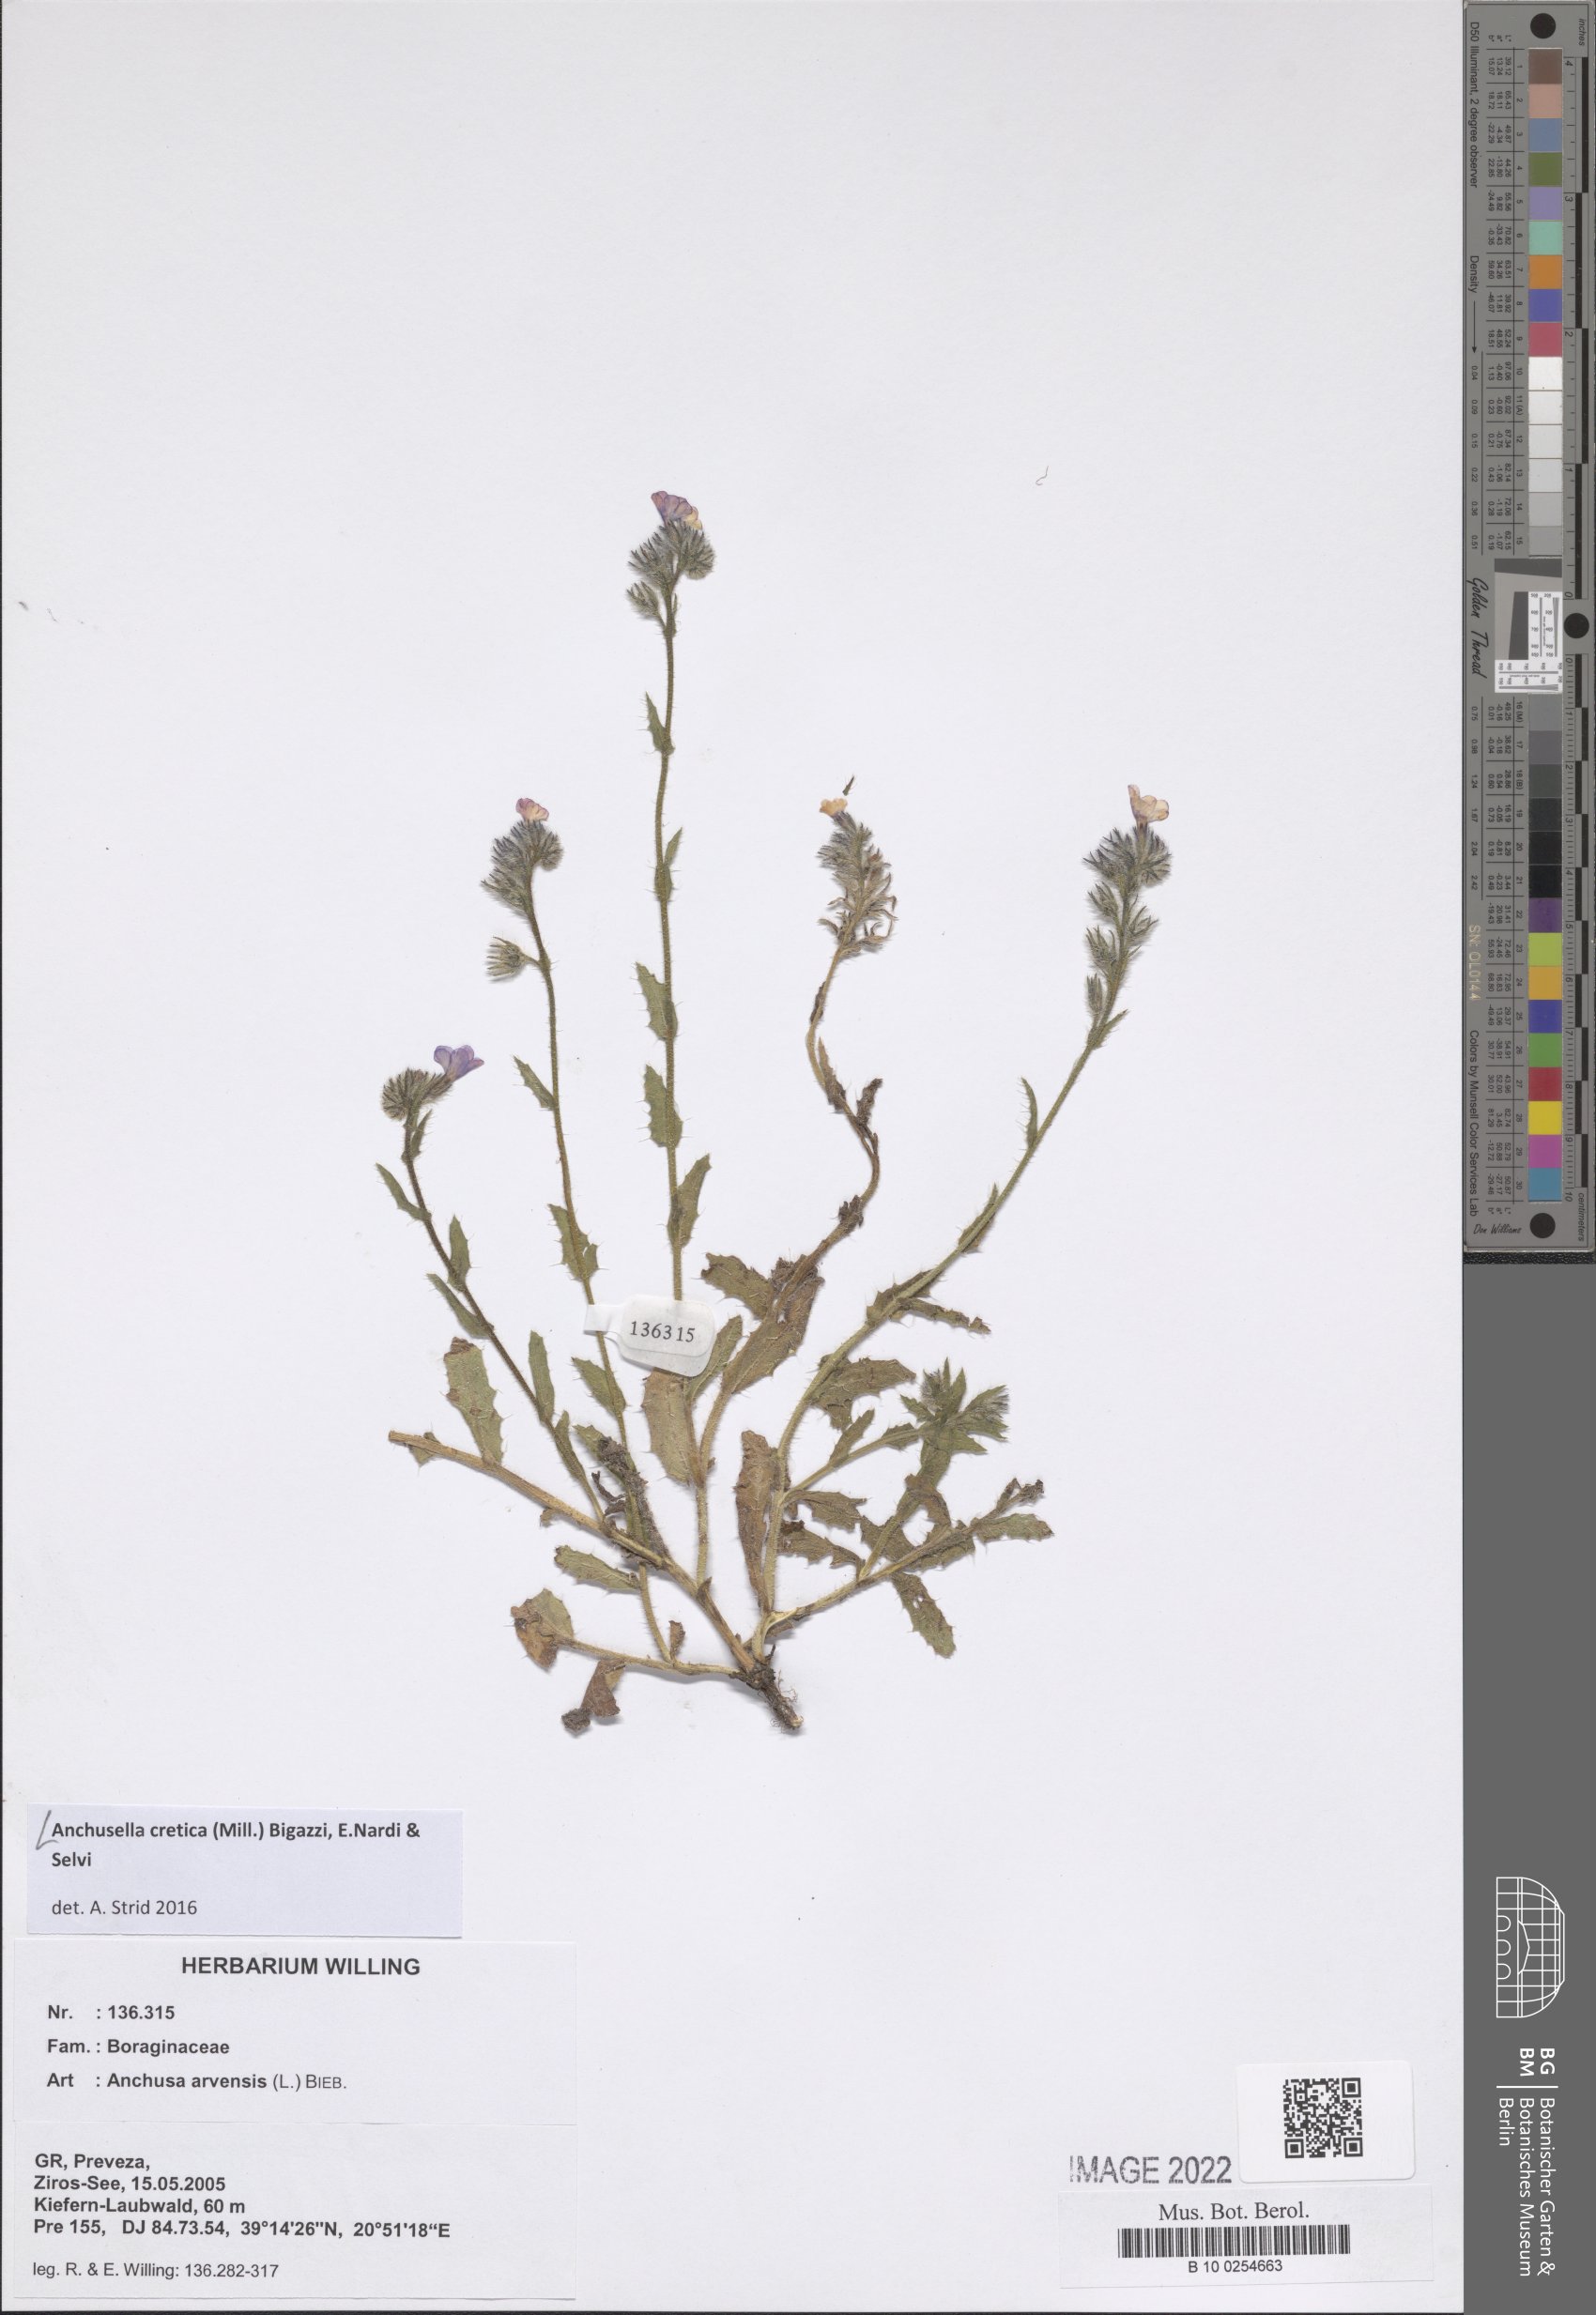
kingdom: Plantae
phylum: Tracheophyta
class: Magnoliopsida
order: Boraginales
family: Boraginaceae
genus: Anchusella
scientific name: Anchusella cretica
